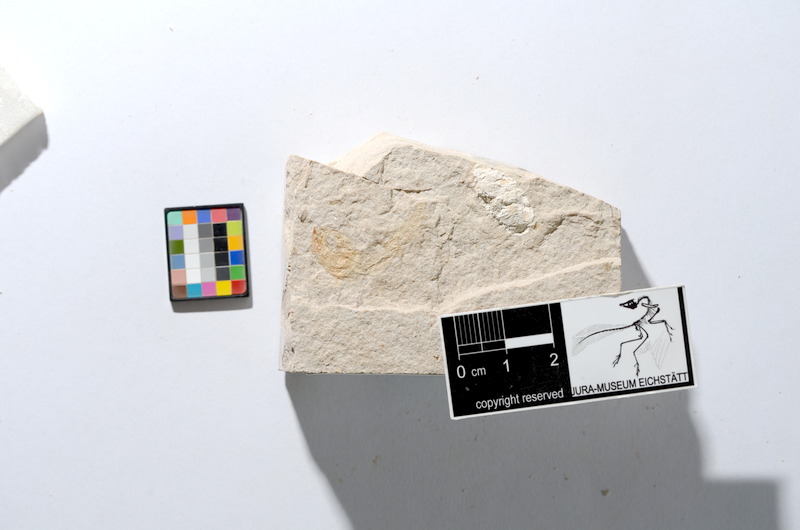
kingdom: Animalia
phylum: Chordata
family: Ascalaboidae
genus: Tharsis
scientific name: Tharsis dubius
